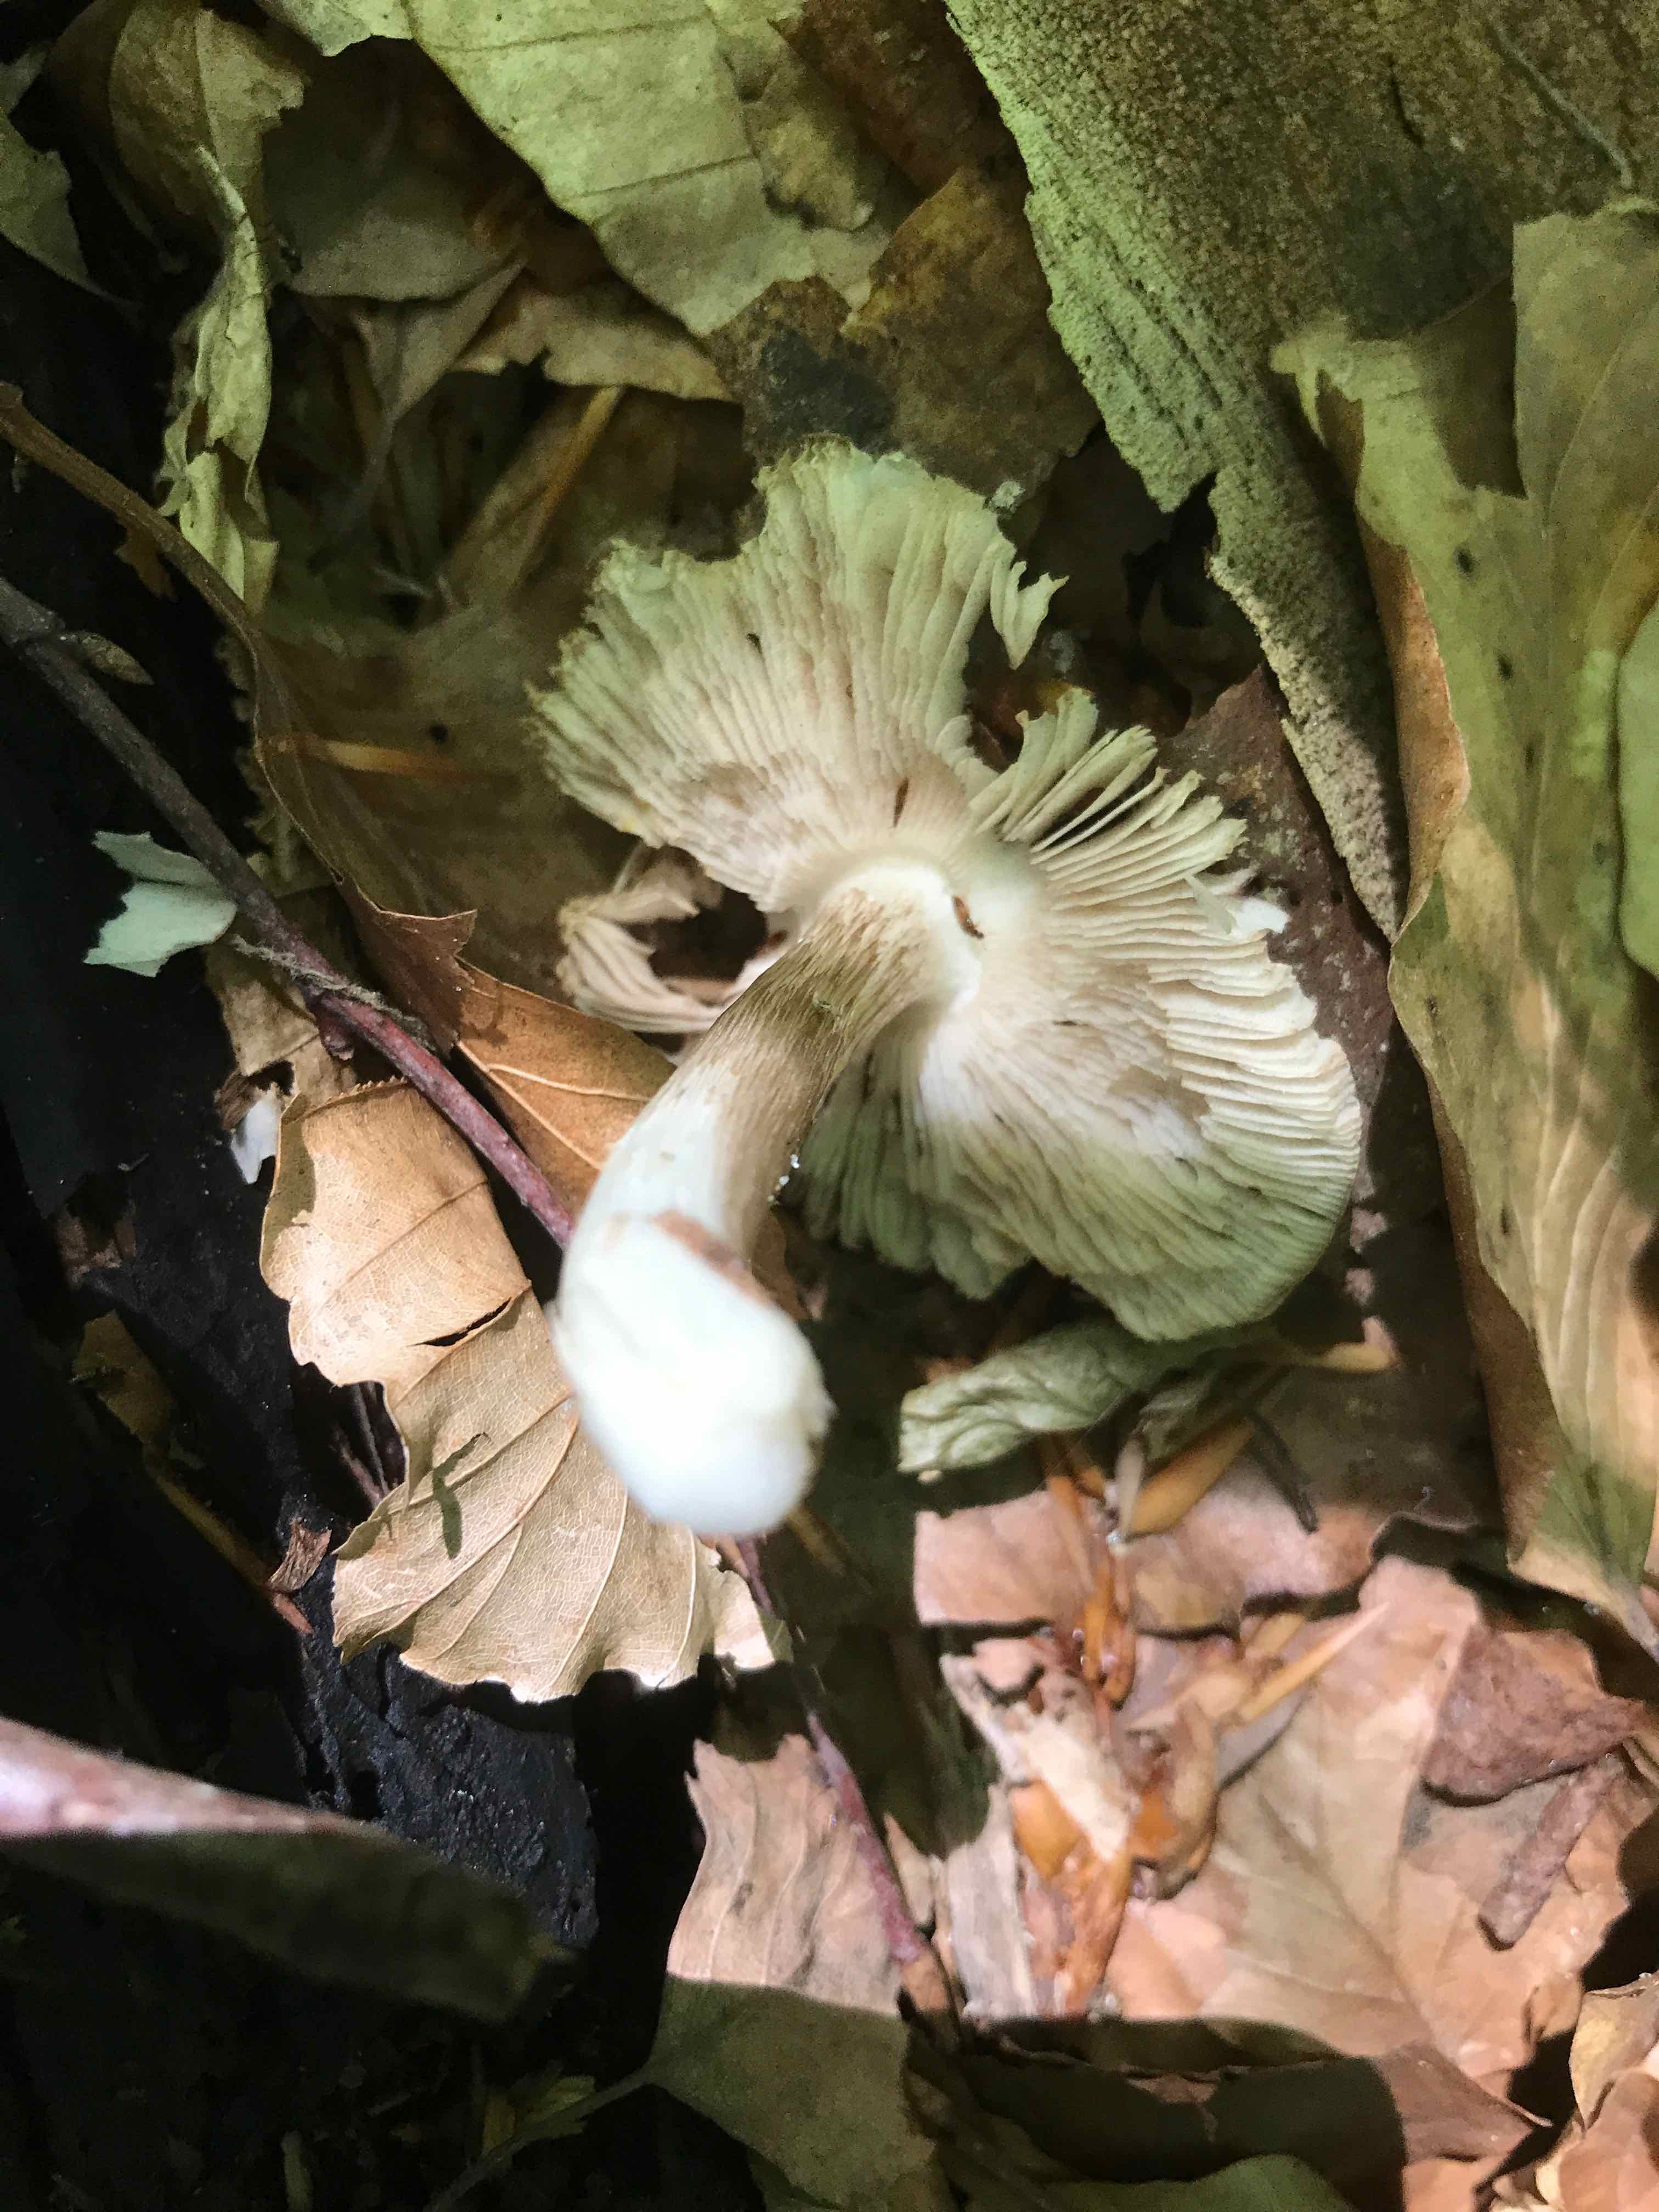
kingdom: Fungi
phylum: Basidiomycota
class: Agaricomycetes
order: Agaricales
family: Pluteaceae
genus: Pluteus
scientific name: Pluteus cervinus
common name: sodfarvet skærmhat
